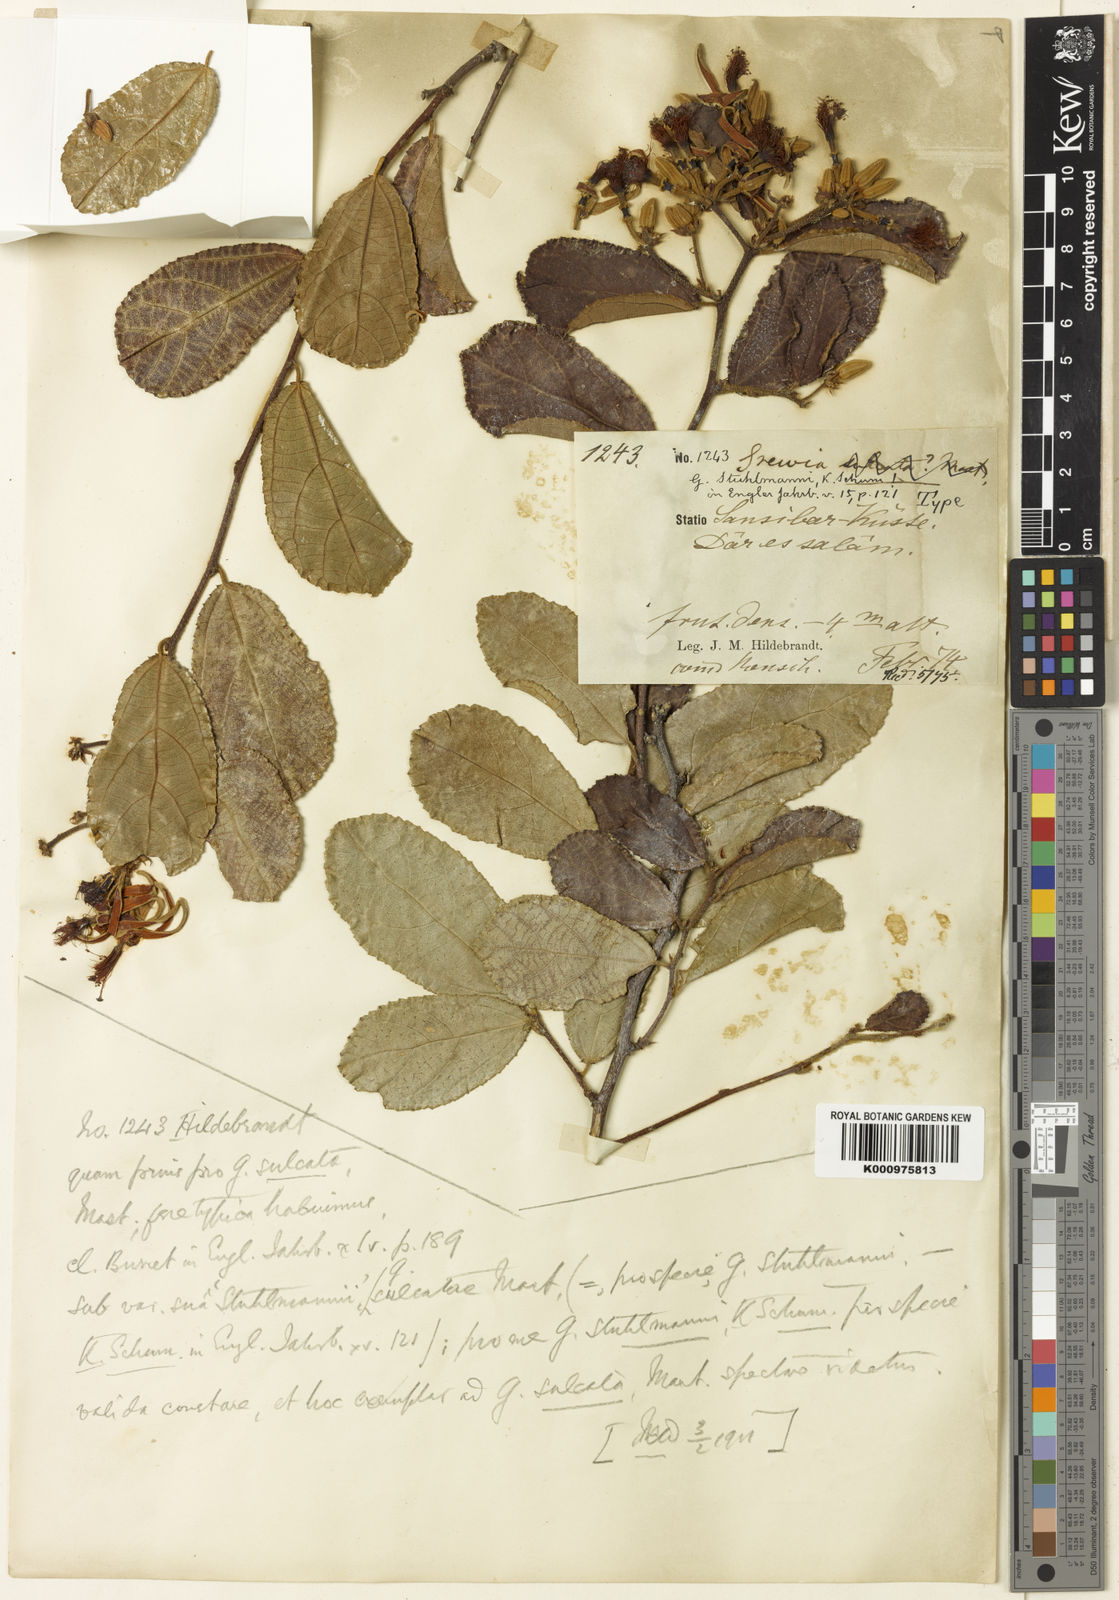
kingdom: Plantae
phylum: Tracheophyta
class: Magnoliopsida
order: Malvales
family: Malvaceae
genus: Grewia
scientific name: Grewia stuhlmannii
